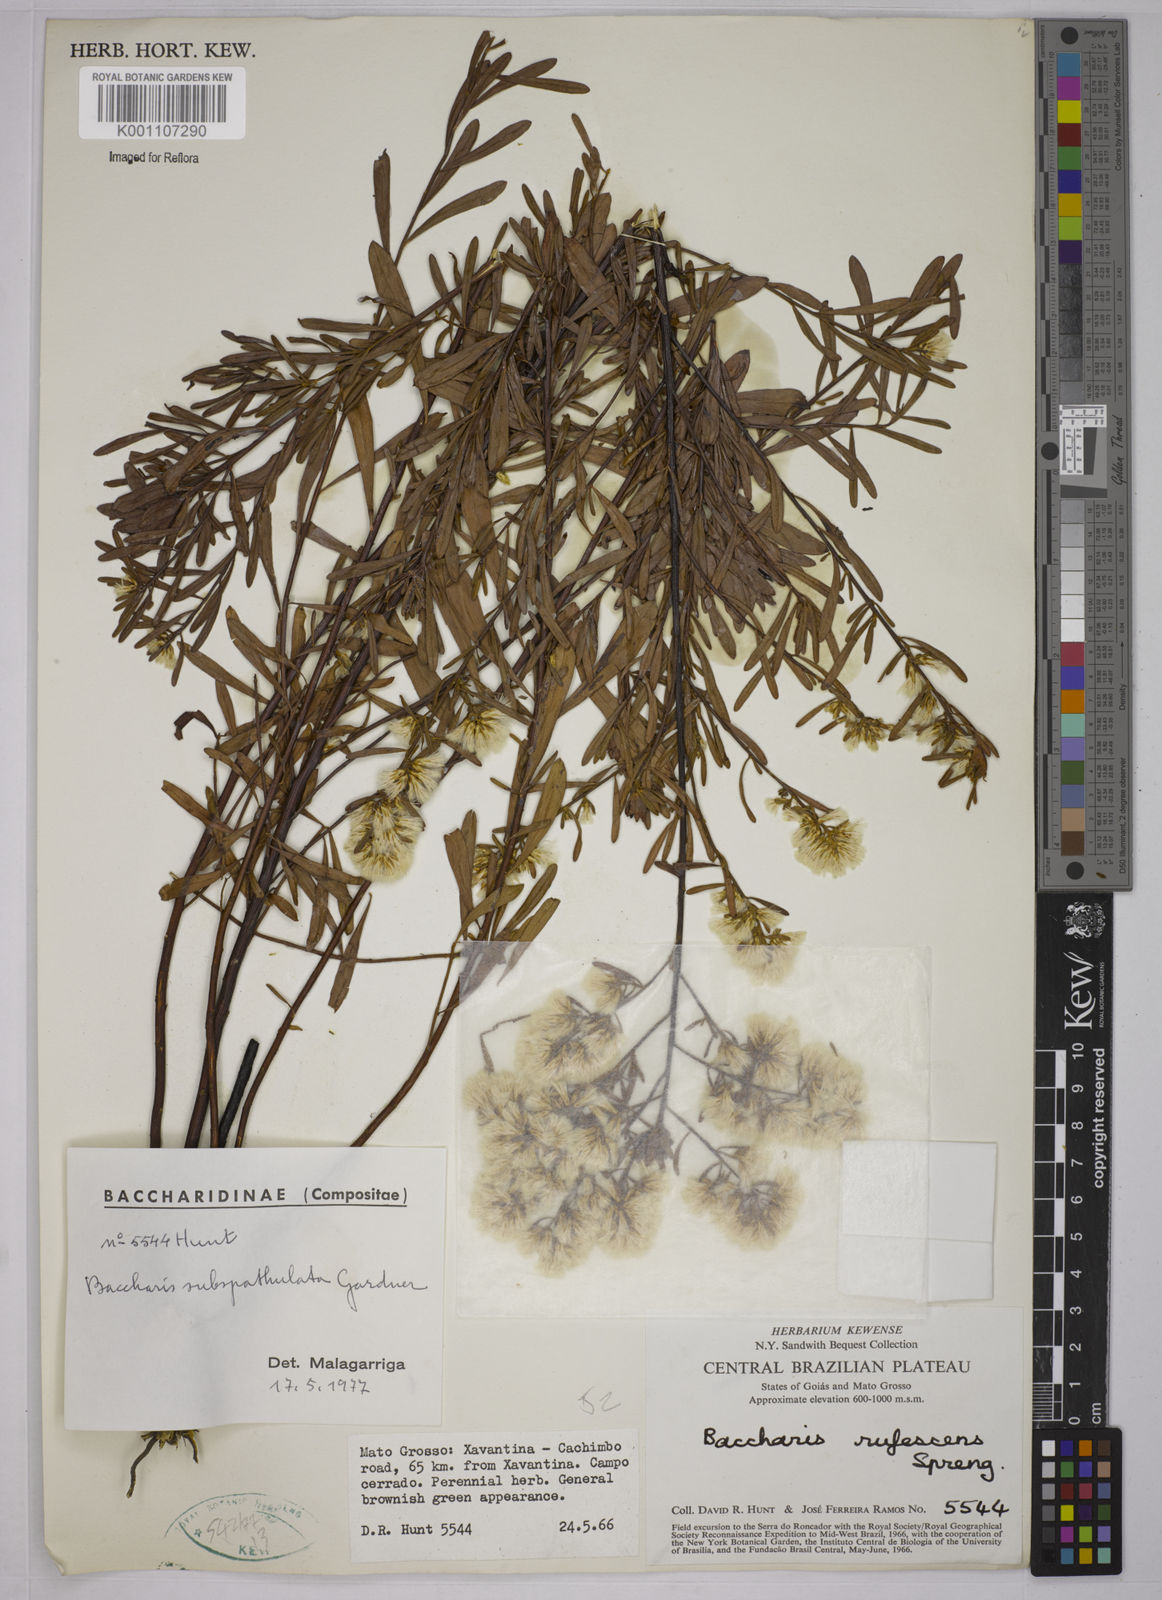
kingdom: Plantae
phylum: Tracheophyta
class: Magnoliopsida
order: Asterales
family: Asteraceae
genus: Baccharis
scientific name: Baccharis linearifolia
